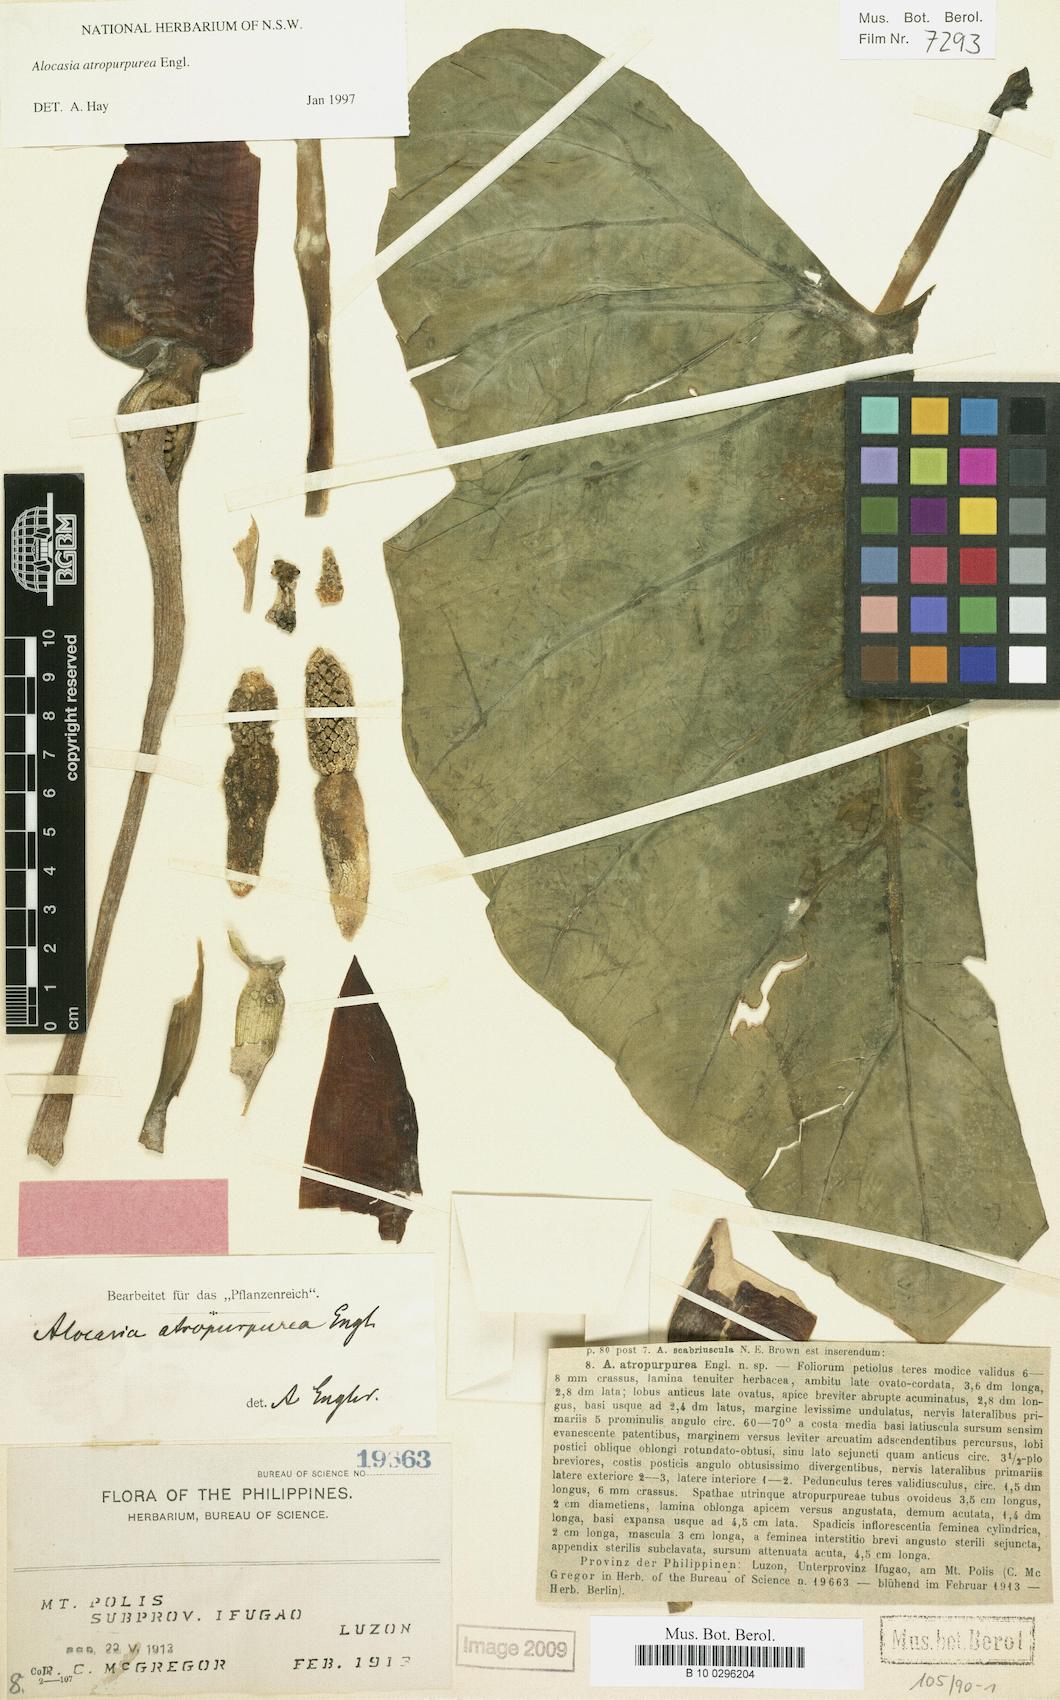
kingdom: Plantae
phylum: Tracheophyta
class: Liliopsida
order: Alismatales
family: Araceae
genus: Alocasia
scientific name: Alocasia atropurpurea
